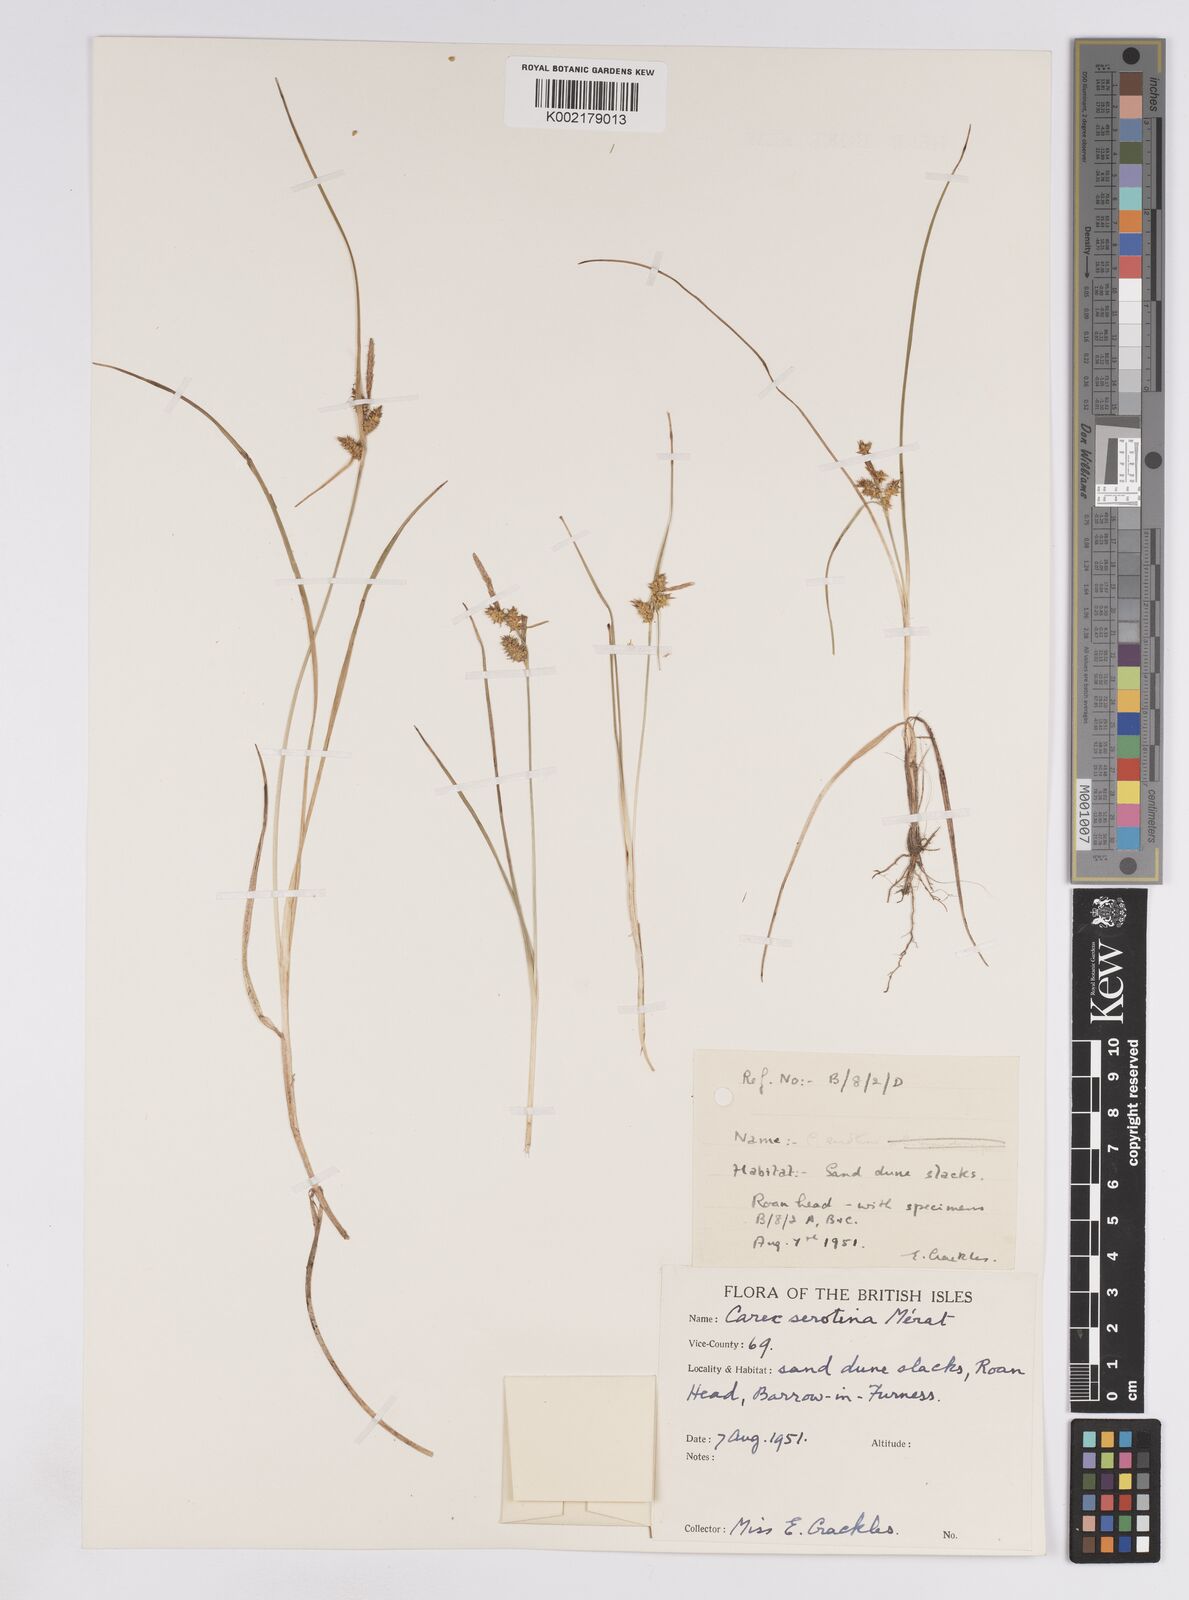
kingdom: Plantae
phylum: Tracheophyta
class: Liliopsida
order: Poales
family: Cyperaceae
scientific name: Cyperaceae
